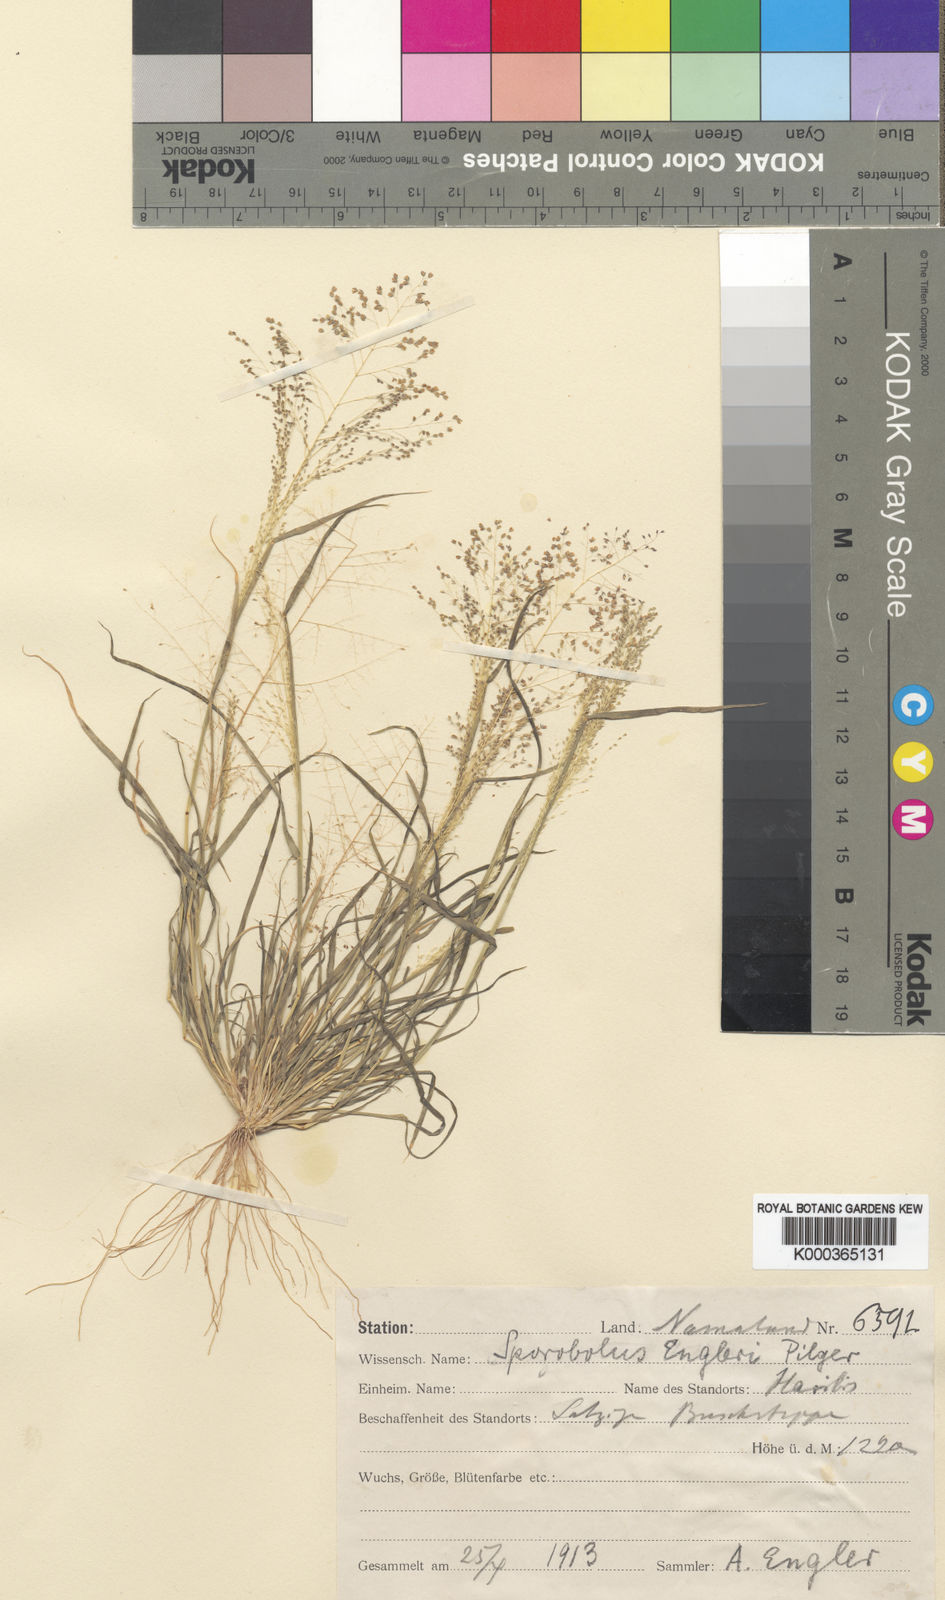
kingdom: Plantae
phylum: Tracheophyta
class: Liliopsida
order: Poales
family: Poaceae
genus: Sporobolus
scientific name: Sporobolus engleri
